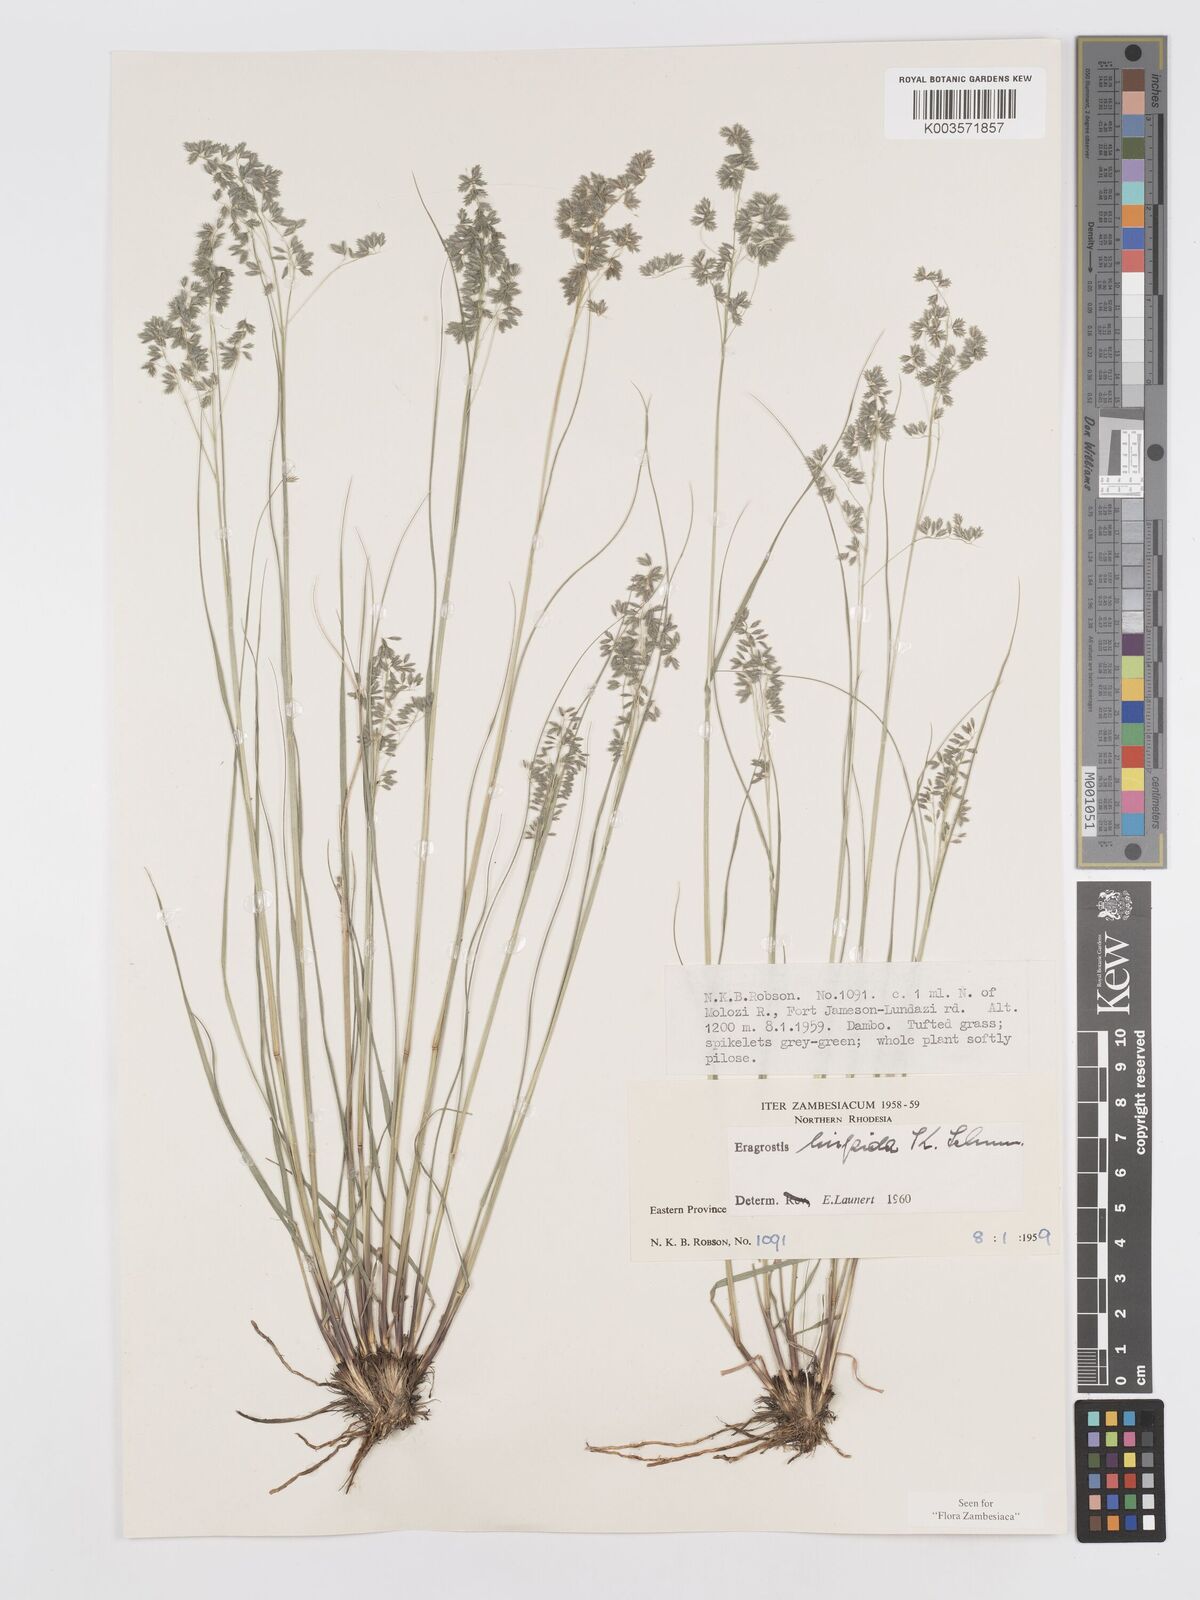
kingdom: Plantae
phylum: Tracheophyta
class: Liliopsida
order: Poales
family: Poaceae
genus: Eragrostis
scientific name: Eragrostis hispida
